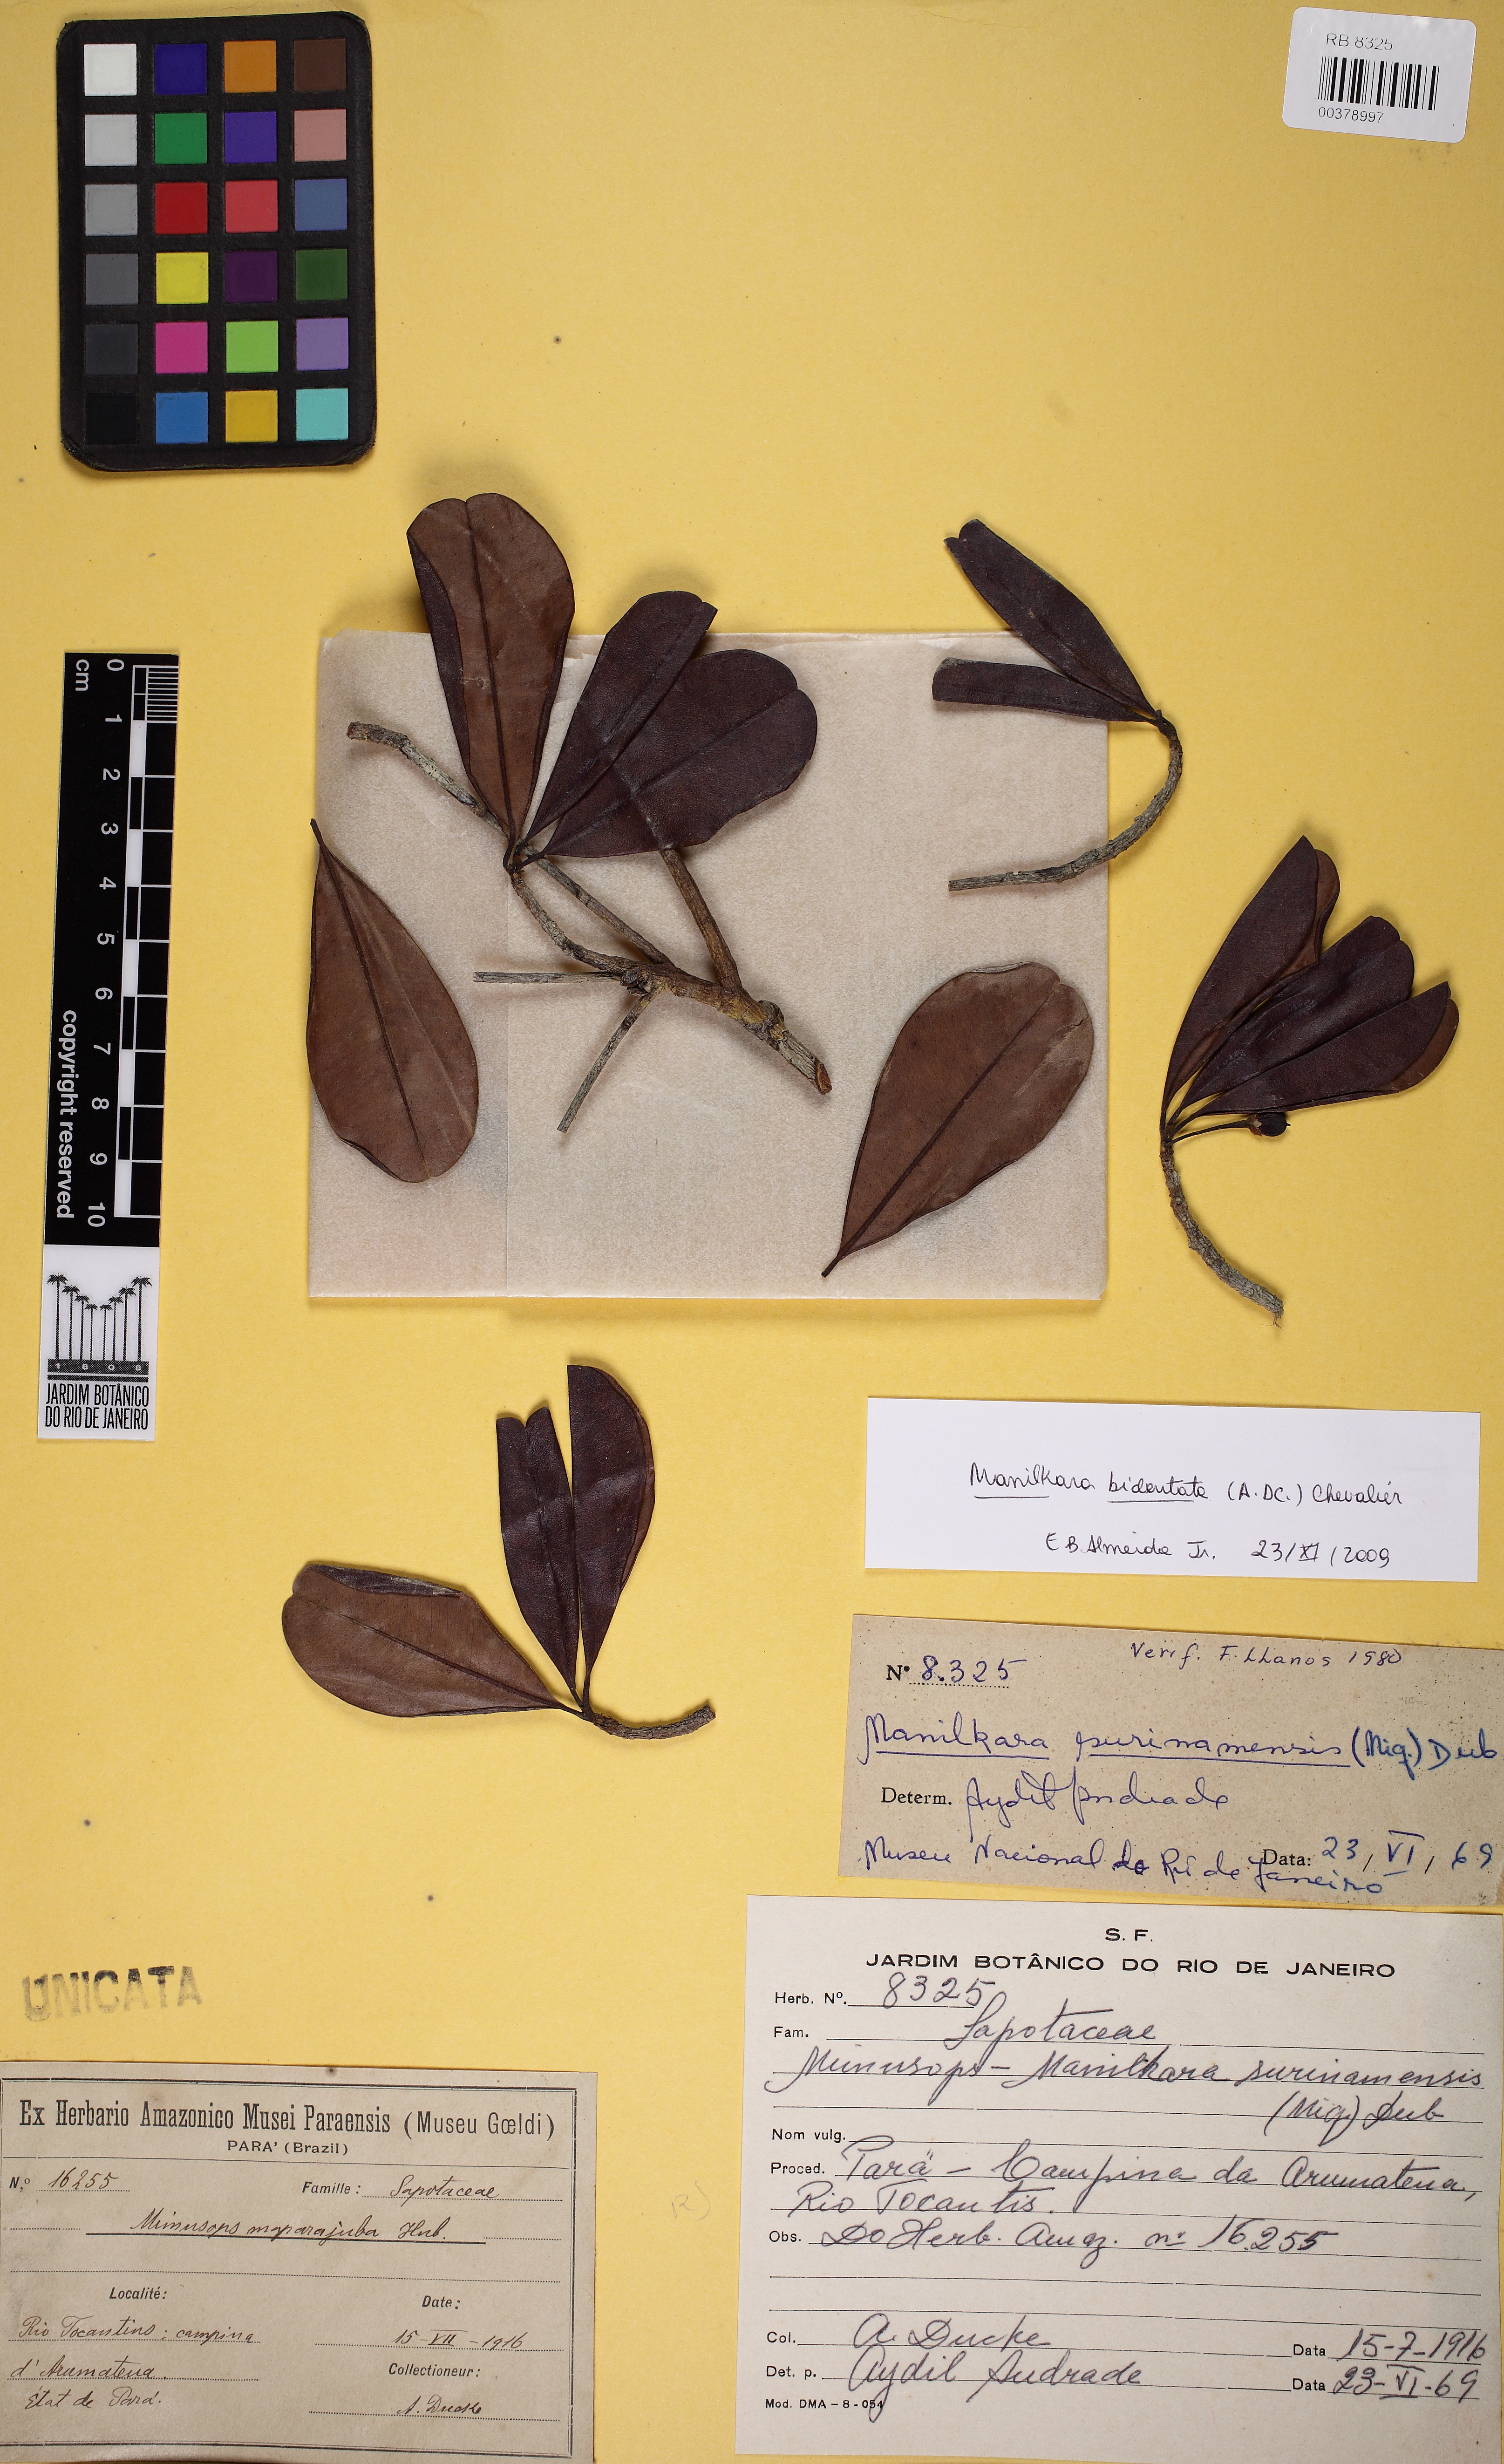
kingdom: Plantae
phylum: Tracheophyta
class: Magnoliopsida
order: Ericales
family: Sapotaceae
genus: Manilkara
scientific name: Manilkara bidentata
